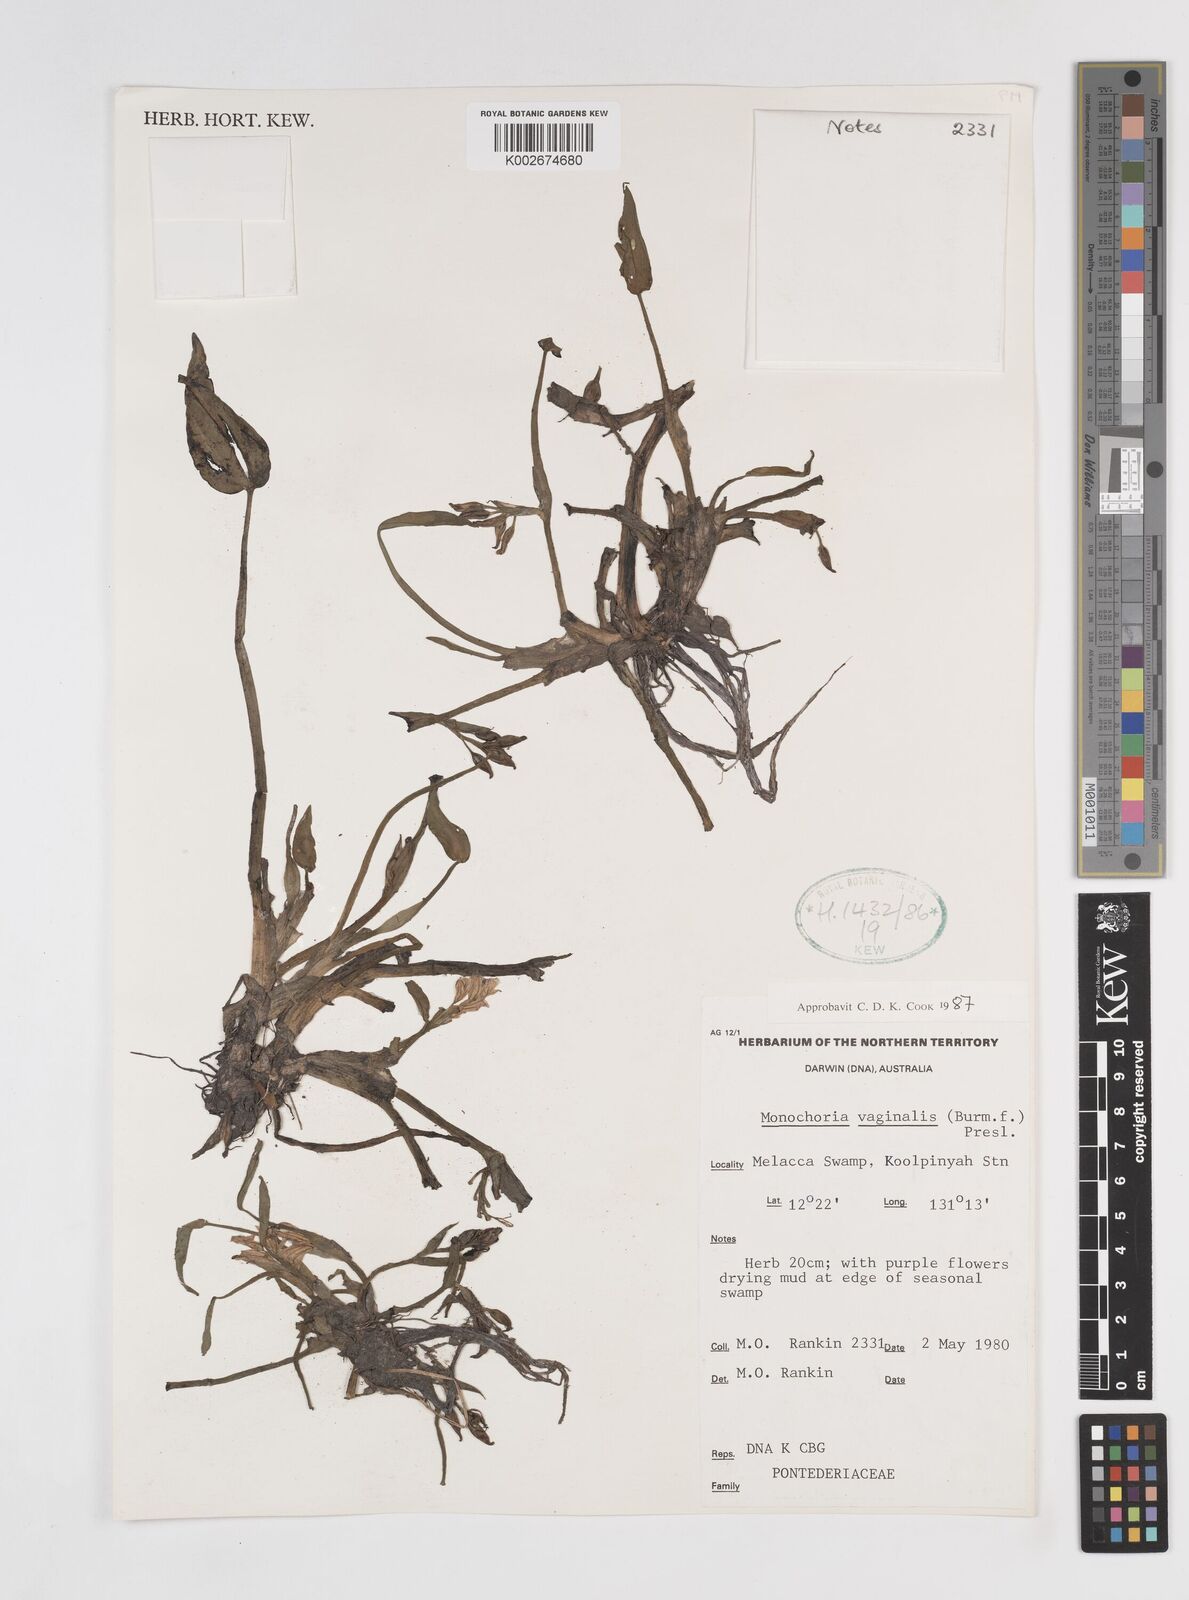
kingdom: Plantae
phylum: Tracheophyta
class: Liliopsida
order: Commelinales
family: Pontederiaceae
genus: Pontederia
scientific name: Pontederia vaginalis
